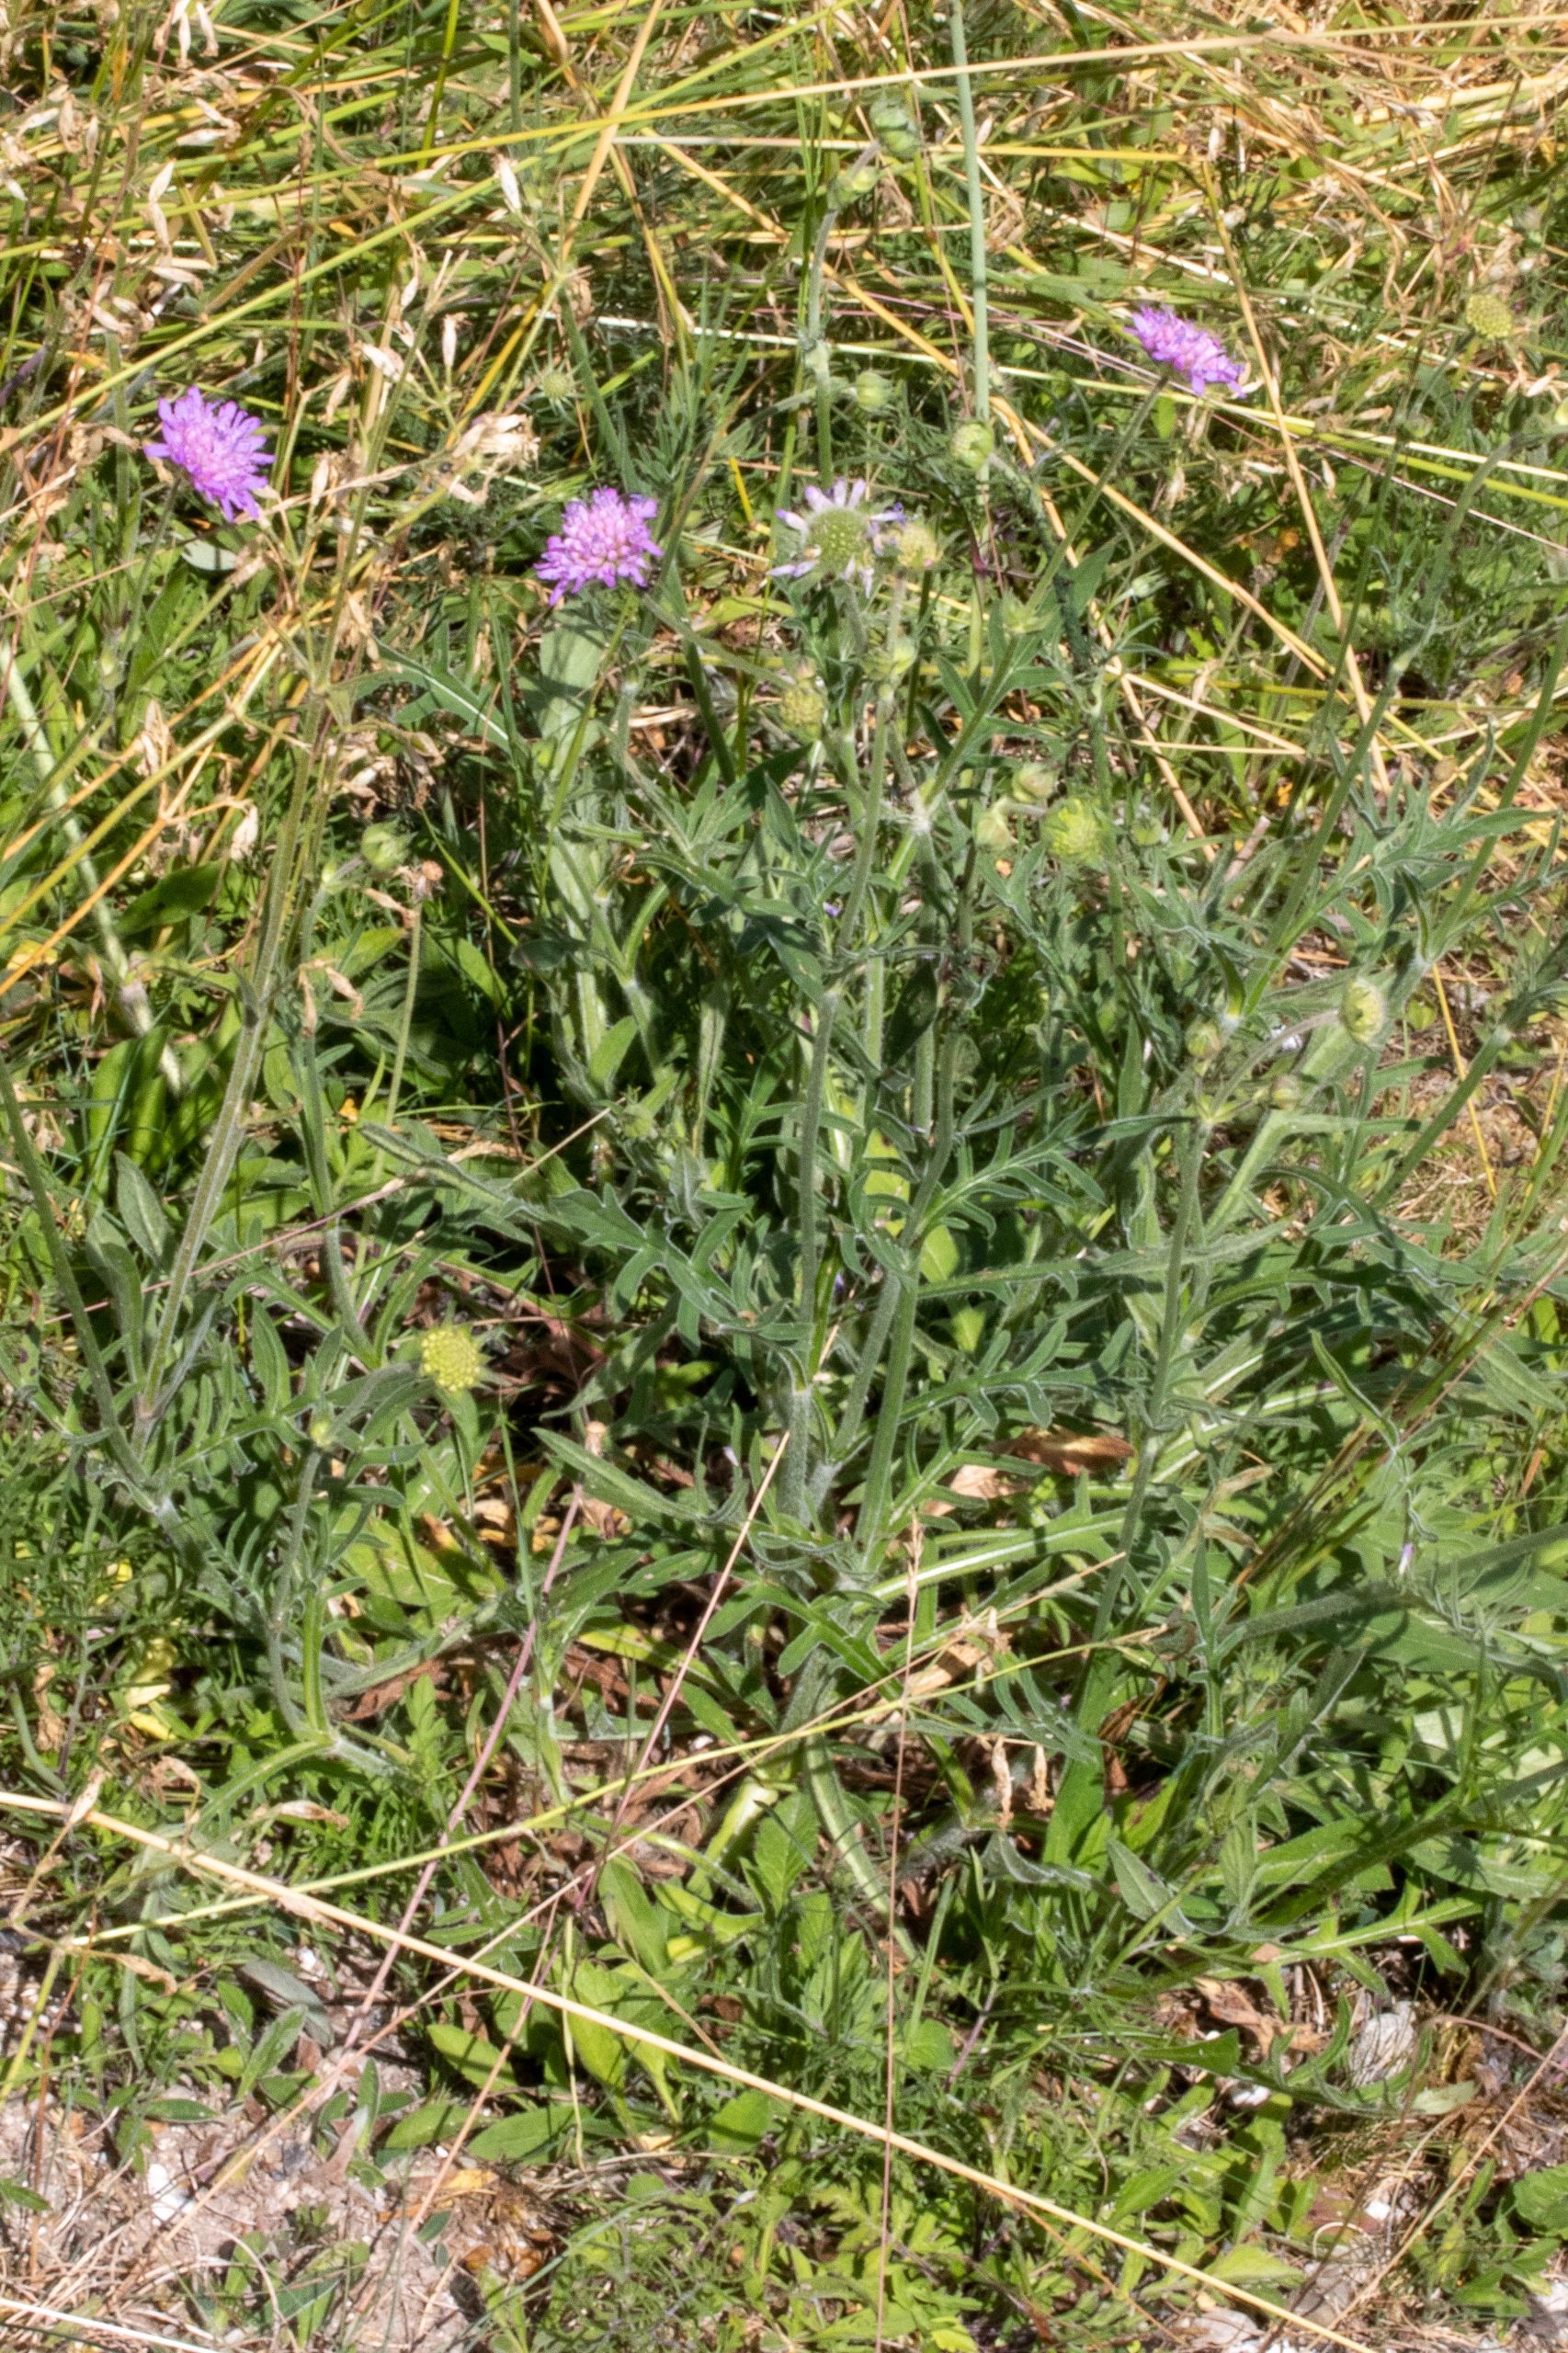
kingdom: Plantae
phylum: Tracheophyta
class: Magnoliopsida
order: Dipsacales
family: Caprifoliaceae
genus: Knautia
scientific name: Knautia arvensis
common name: Blåhat
